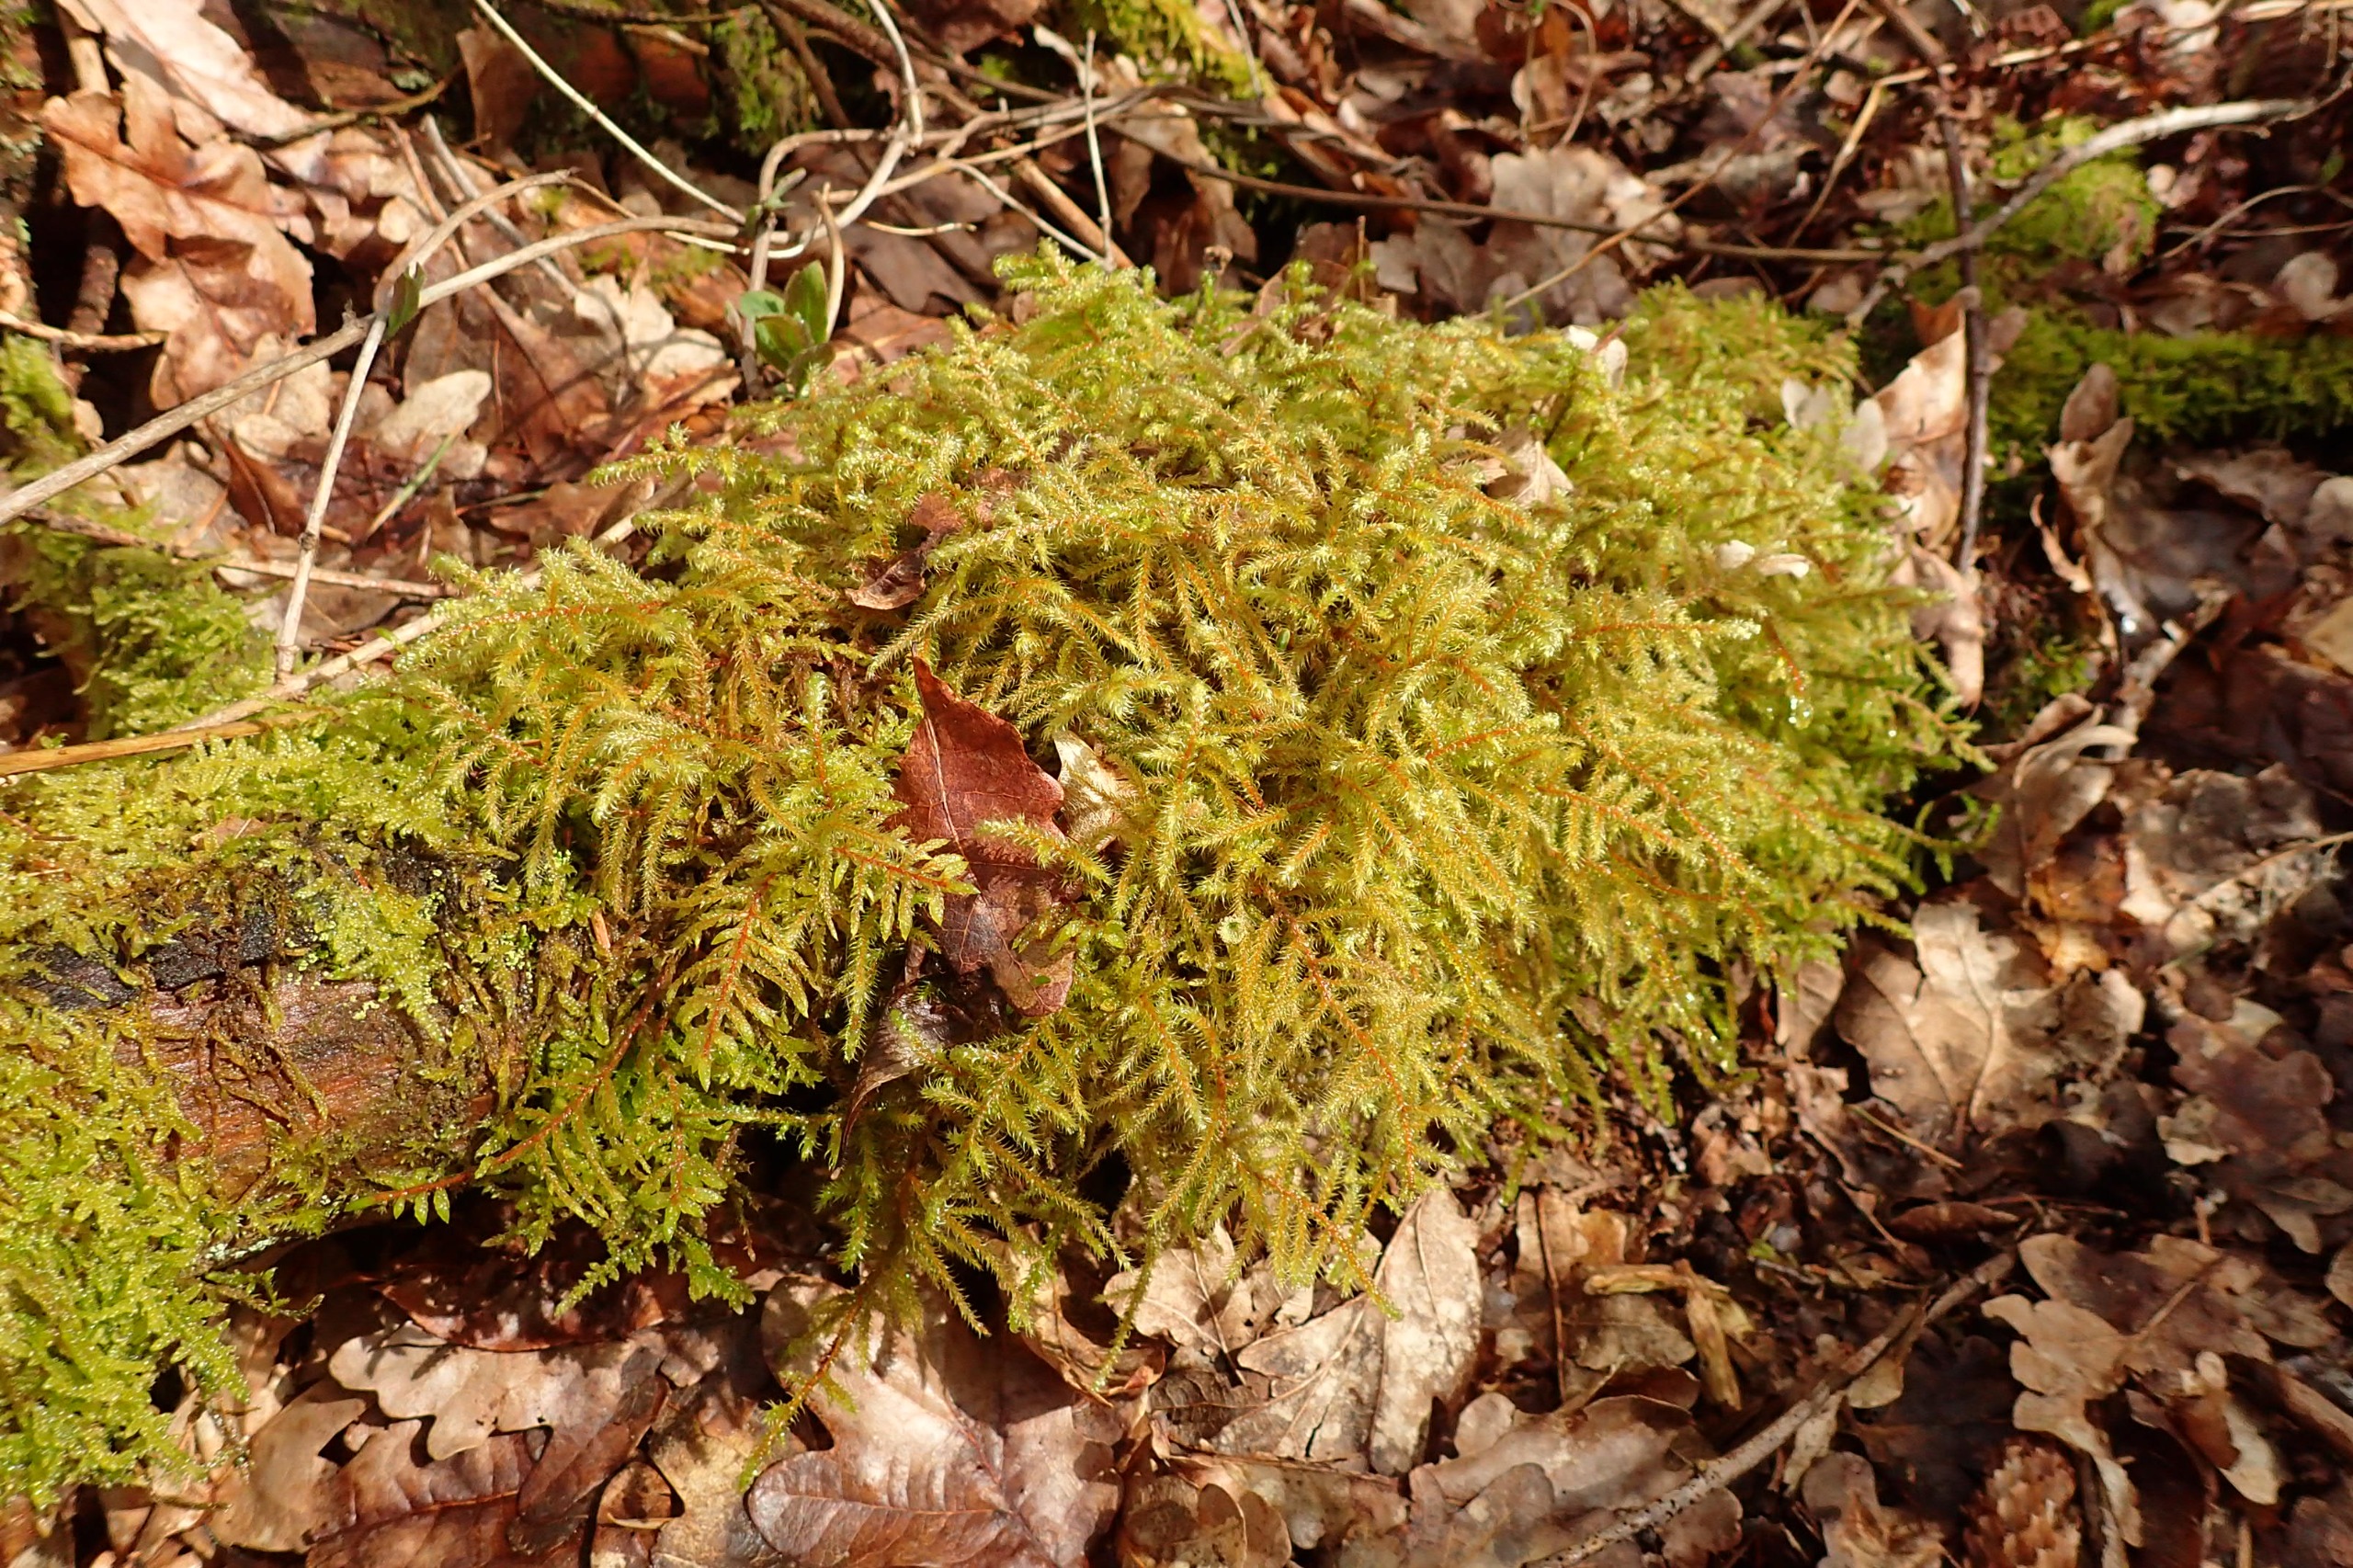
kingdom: Plantae
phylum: Bryophyta
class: Bryopsida
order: Hypnales
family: Hylocomiaceae
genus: Rhytidiadelphus
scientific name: Rhytidiadelphus loreus
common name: Ulvefod-kransemos
